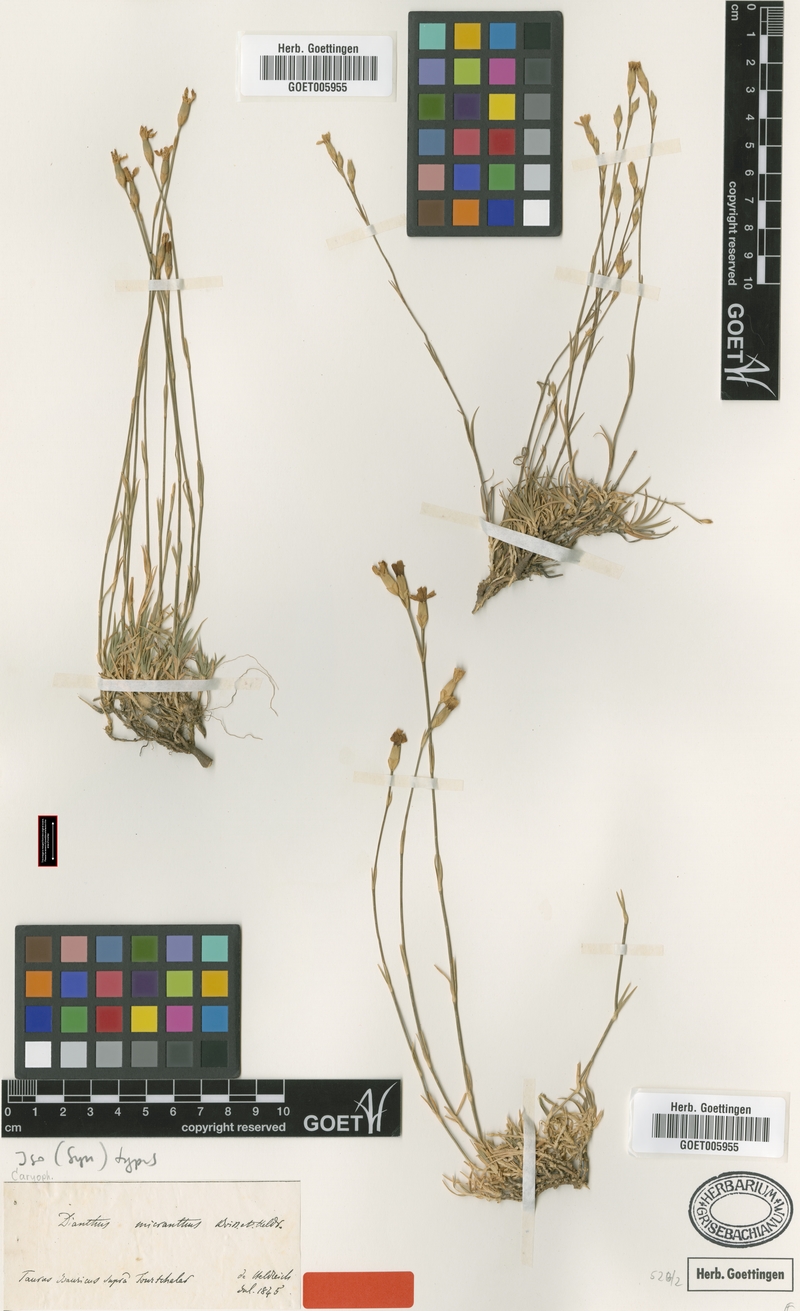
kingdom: Plantae
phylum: Tracheophyta
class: Magnoliopsida
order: Caryophyllales
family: Caryophyllaceae
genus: Dianthus
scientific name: Dianthus micranthus
